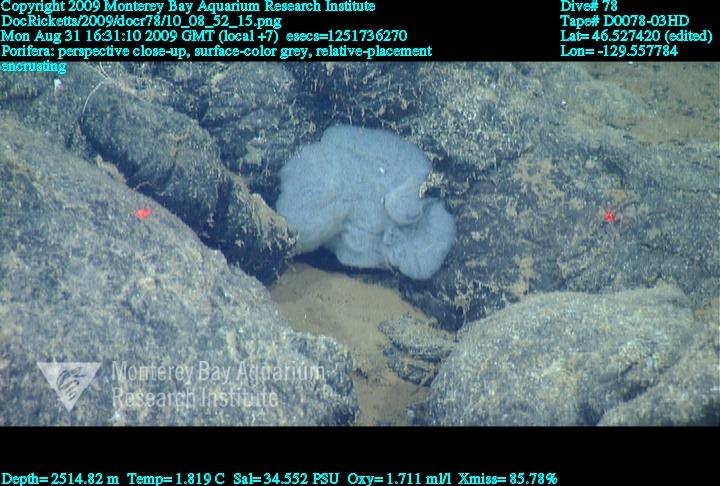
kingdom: Animalia
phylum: Porifera
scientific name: Porifera
